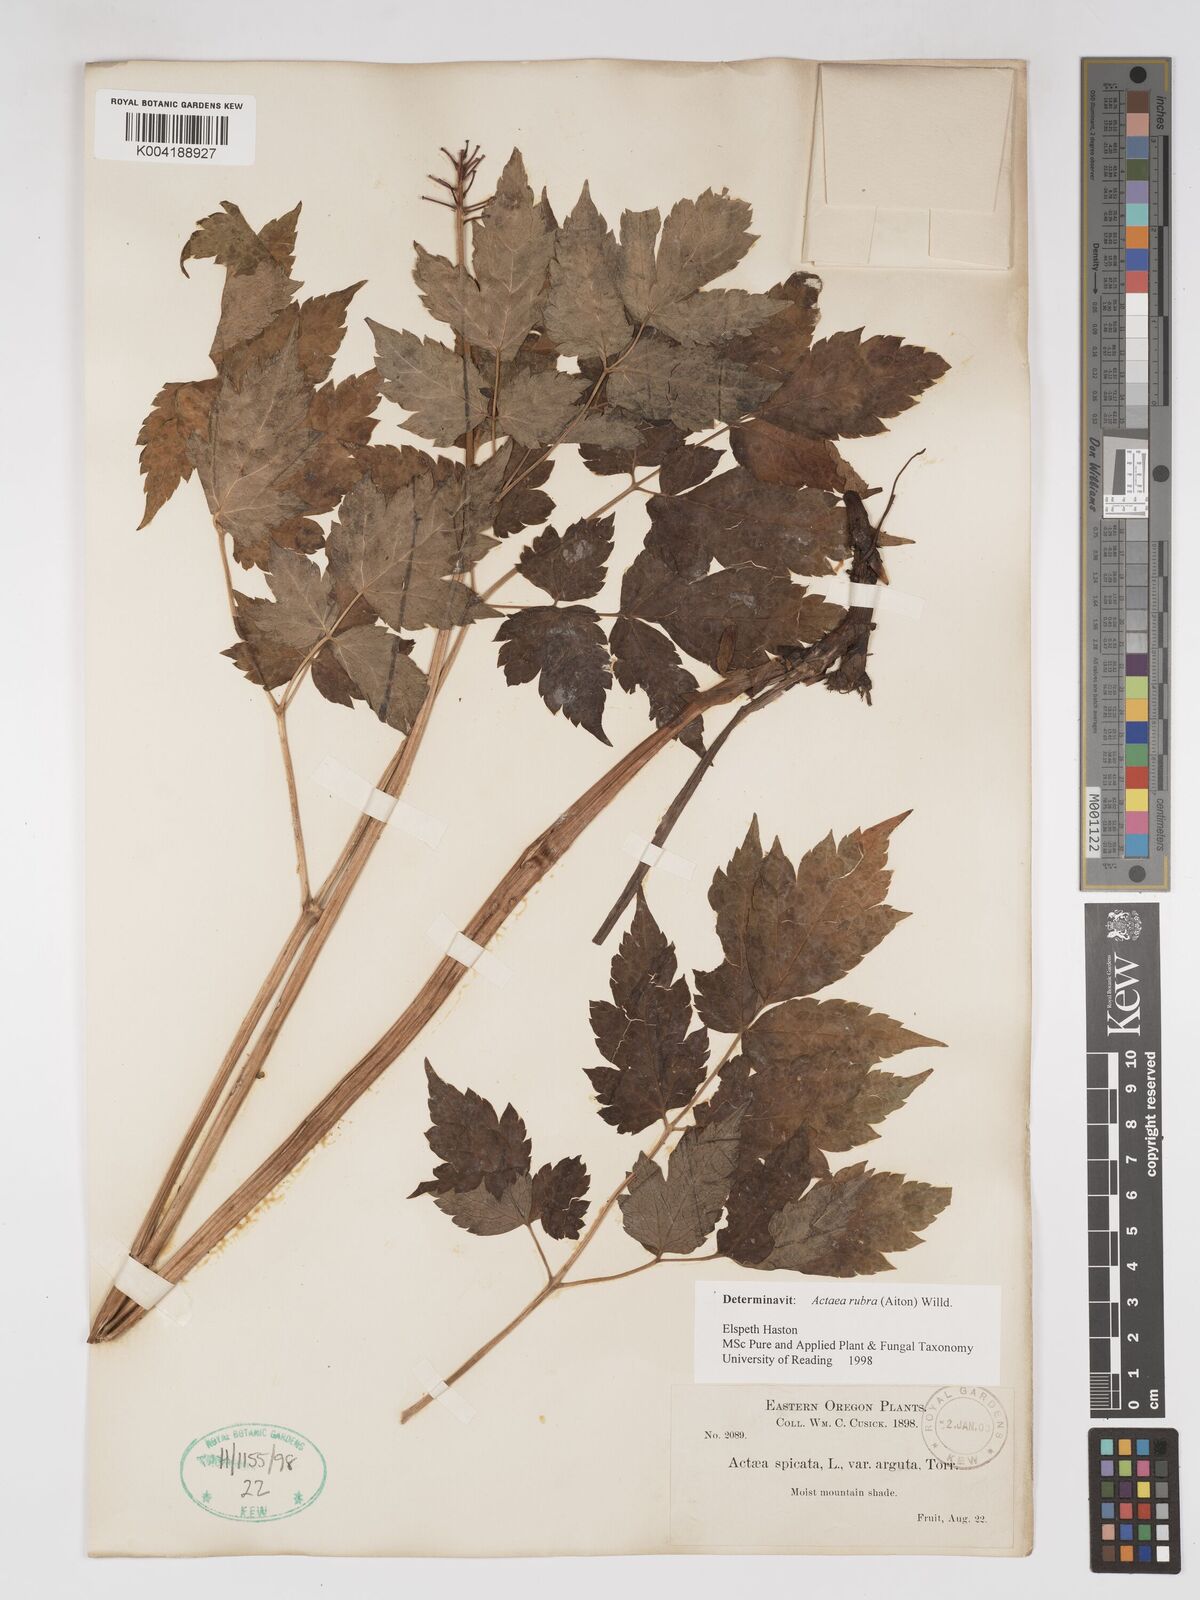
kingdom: Plantae
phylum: Tracheophyta
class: Magnoliopsida
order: Ranunculales
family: Ranunculaceae
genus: Actaea
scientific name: Actaea rubra
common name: Red baneberry
